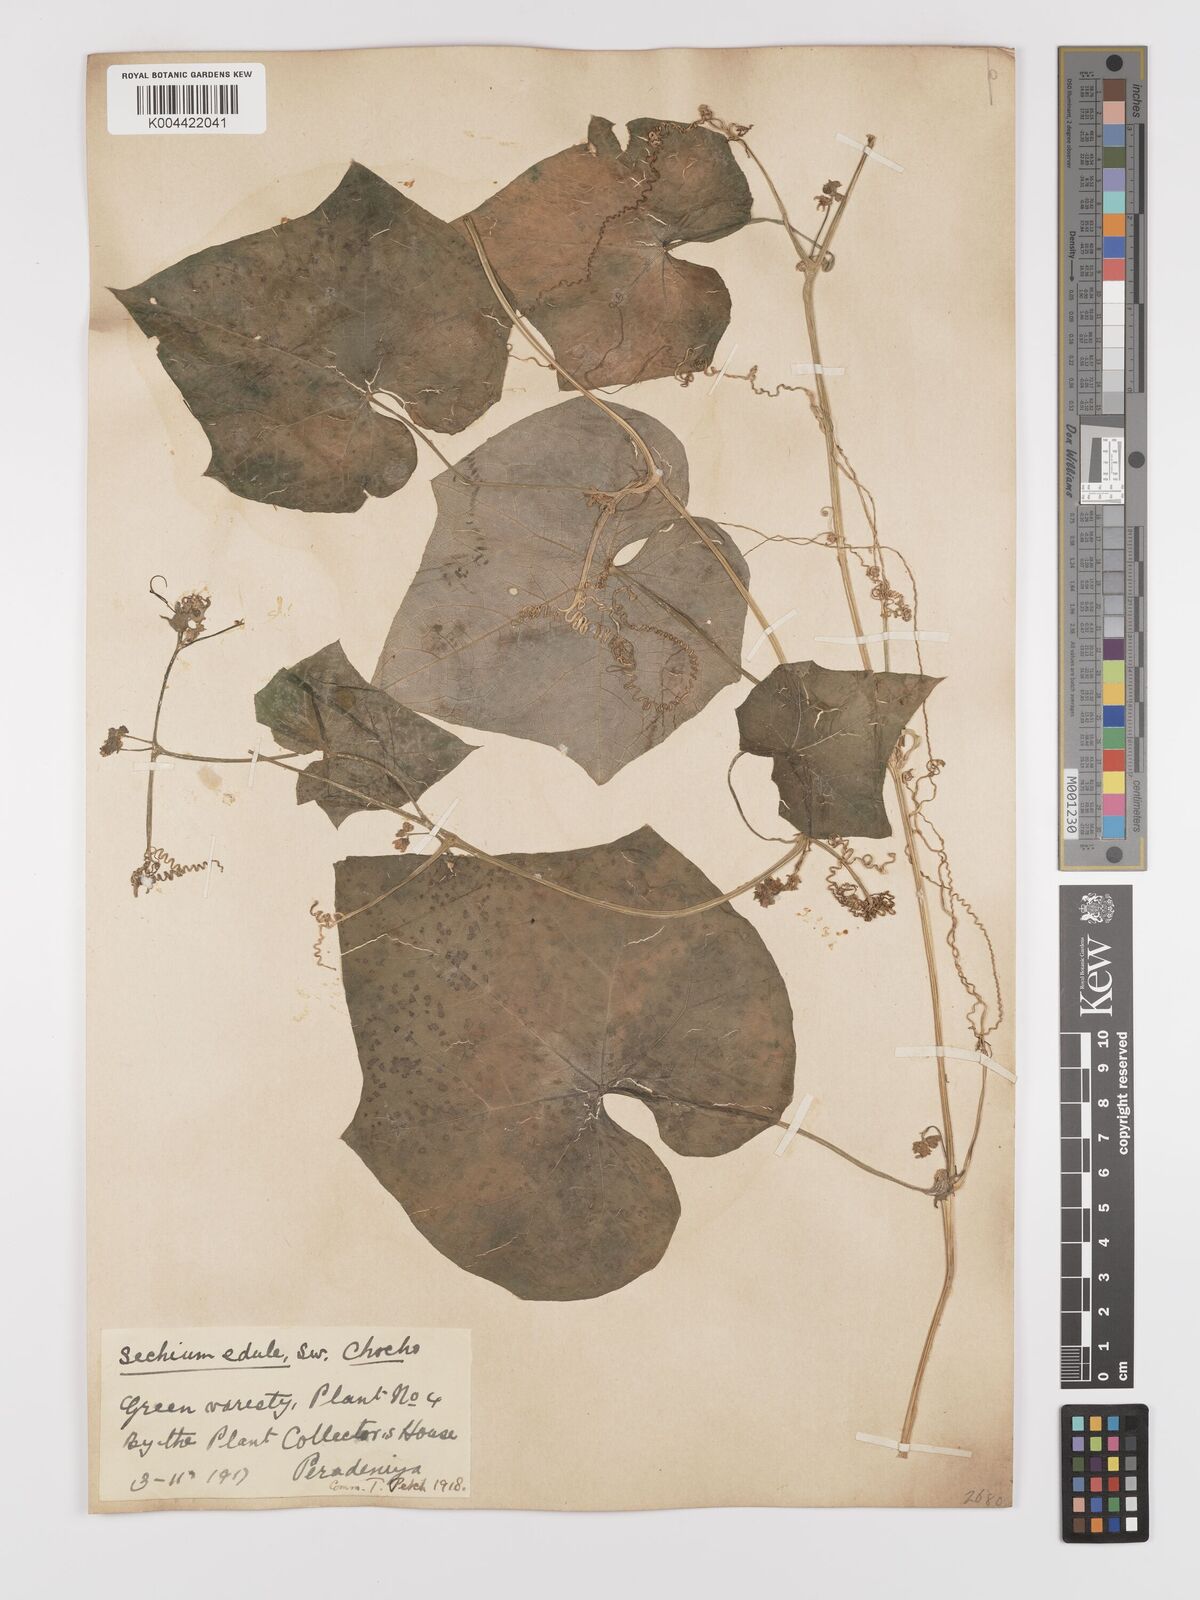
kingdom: Plantae
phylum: Tracheophyta
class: Magnoliopsida
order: Cucurbitales
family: Cucurbitaceae
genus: Sechium
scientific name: Sechium edule
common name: Chayote
